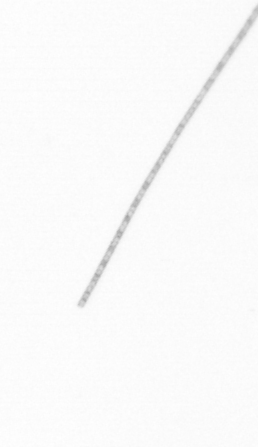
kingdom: Chromista
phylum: Ochrophyta
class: Bacillariophyceae
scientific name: Bacillariophyceae
